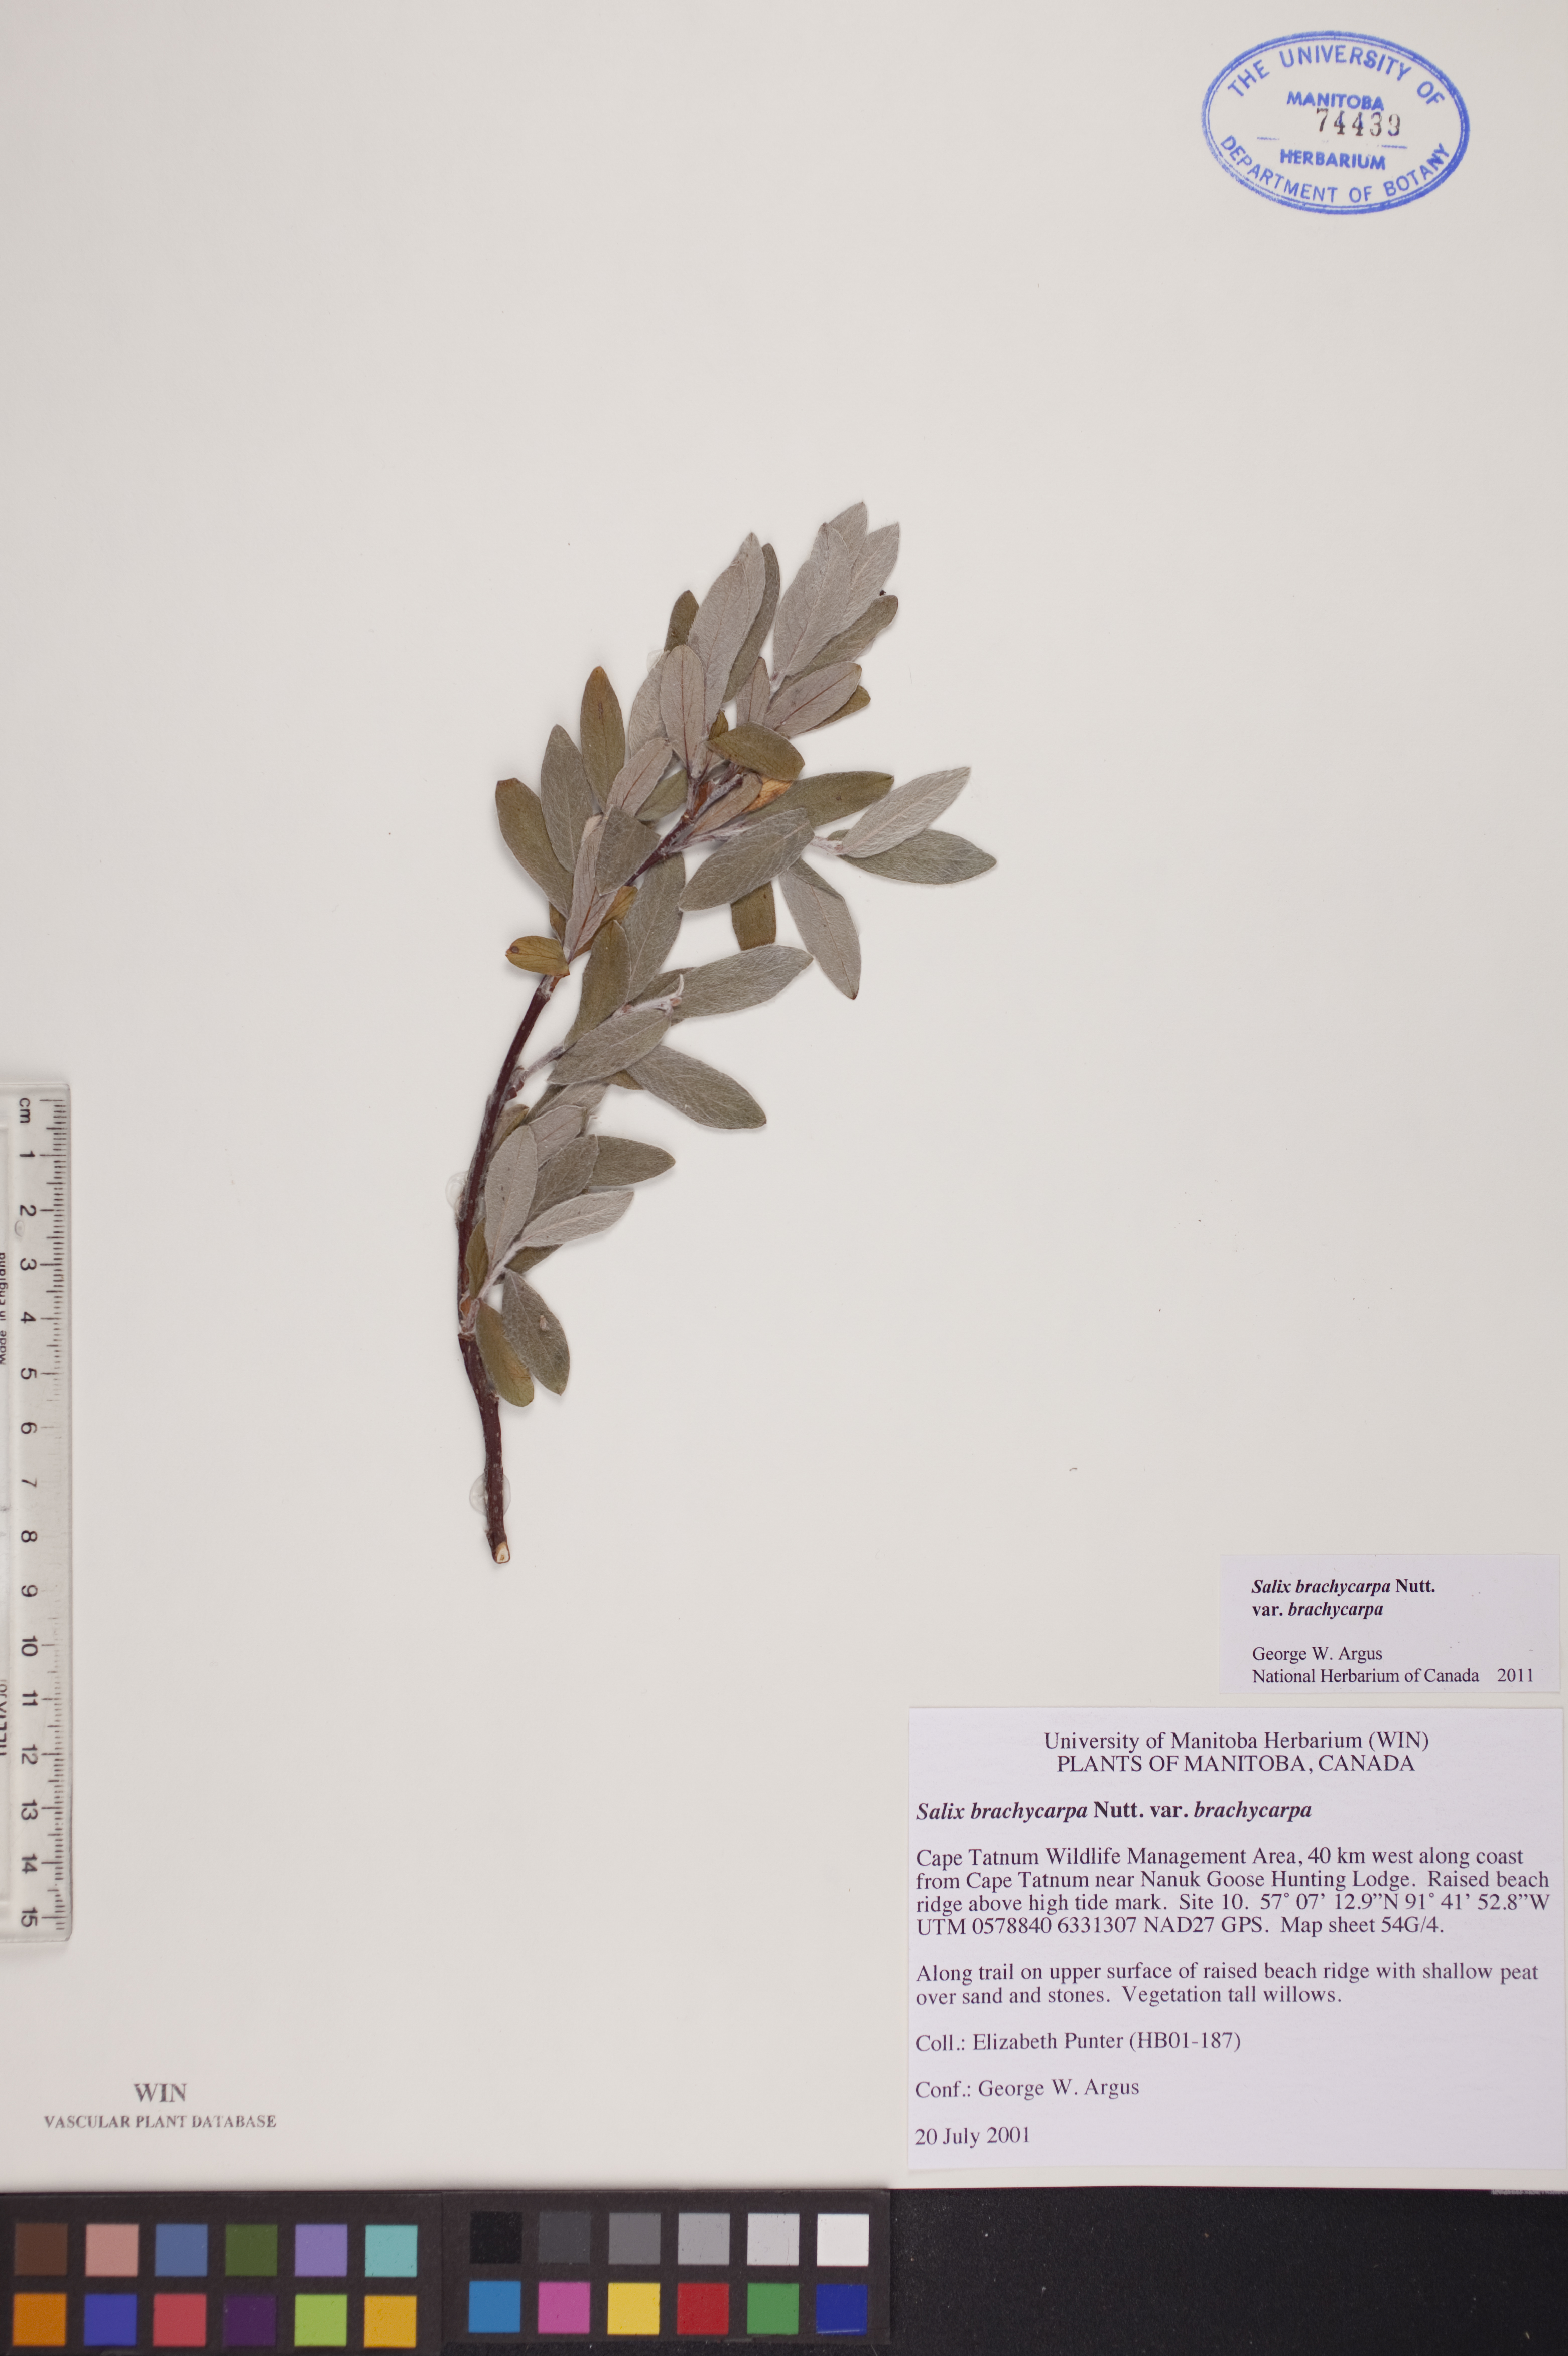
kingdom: Plantae
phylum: Tracheophyta
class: Magnoliopsida
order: Malpighiales
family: Salicaceae
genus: Salix
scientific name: Salix brachycarpa
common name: Barren-ground willow
